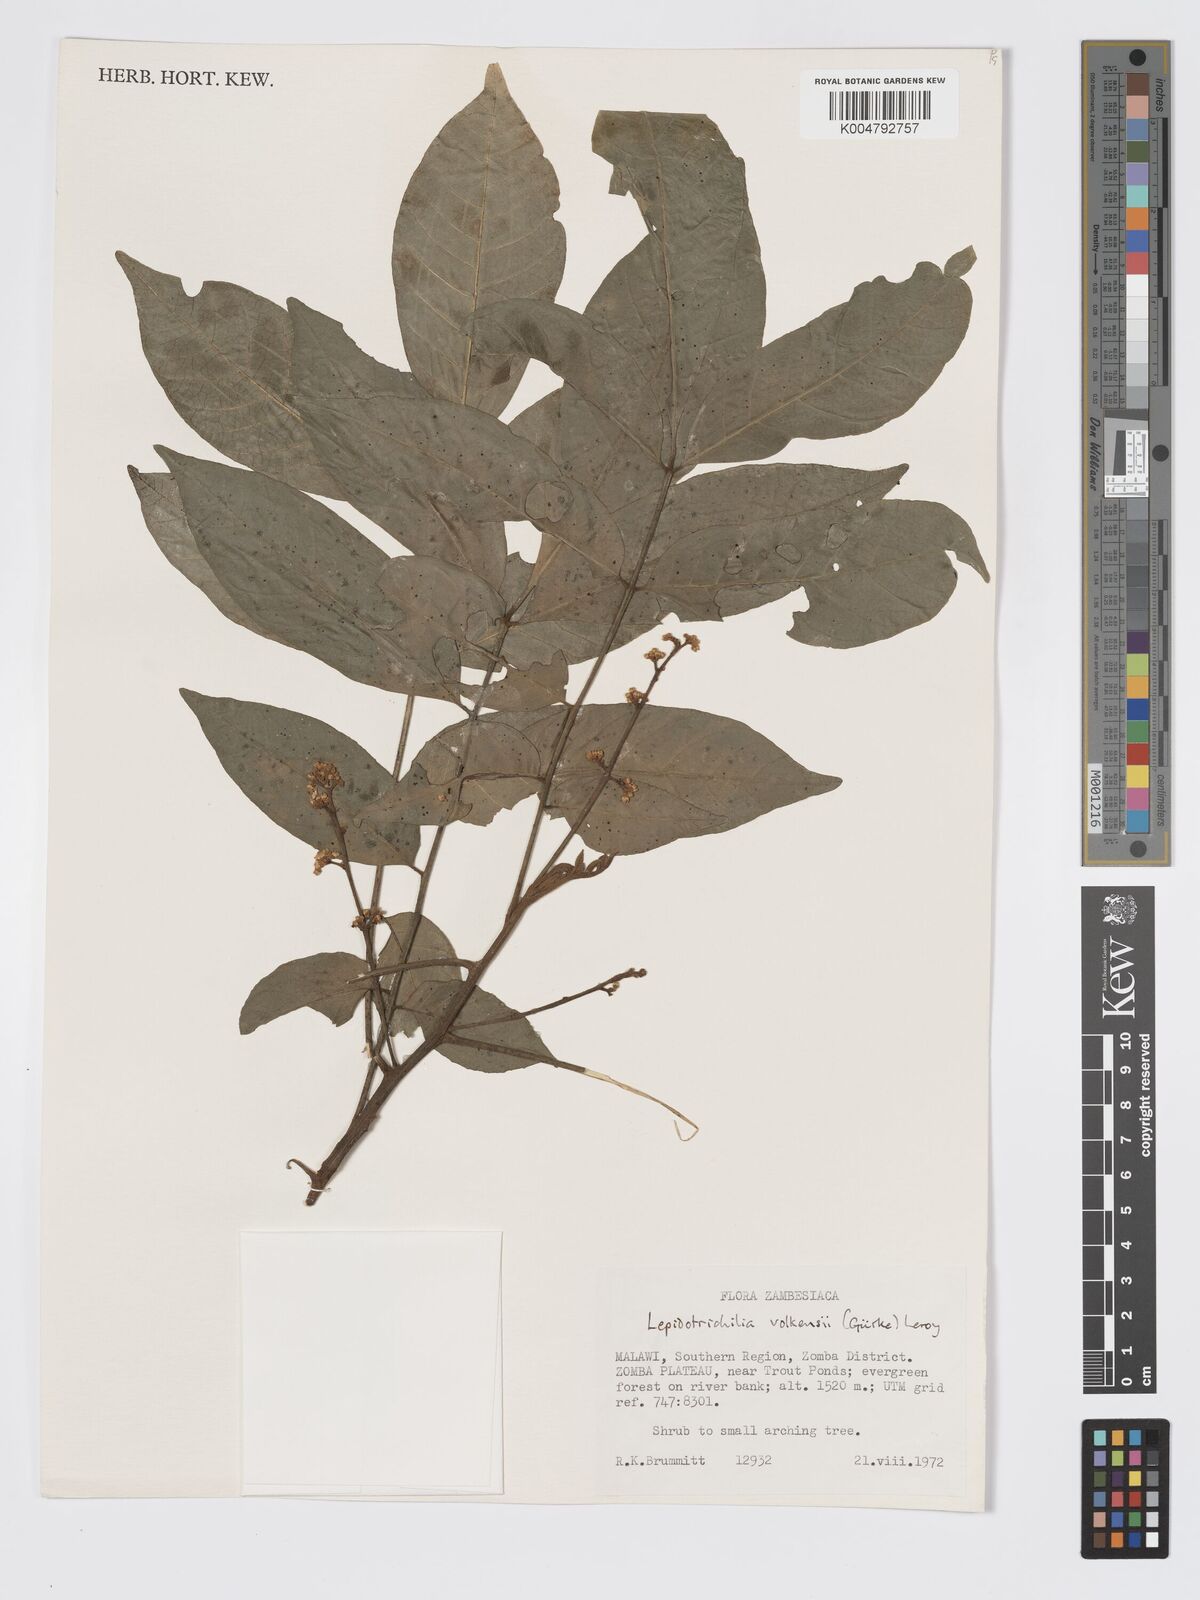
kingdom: Plantae
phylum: Tracheophyta
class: Magnoliopsida
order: Sapindales
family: Meliaceae
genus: Lepidotrichilia
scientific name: Lepidotrichilia volkensii
